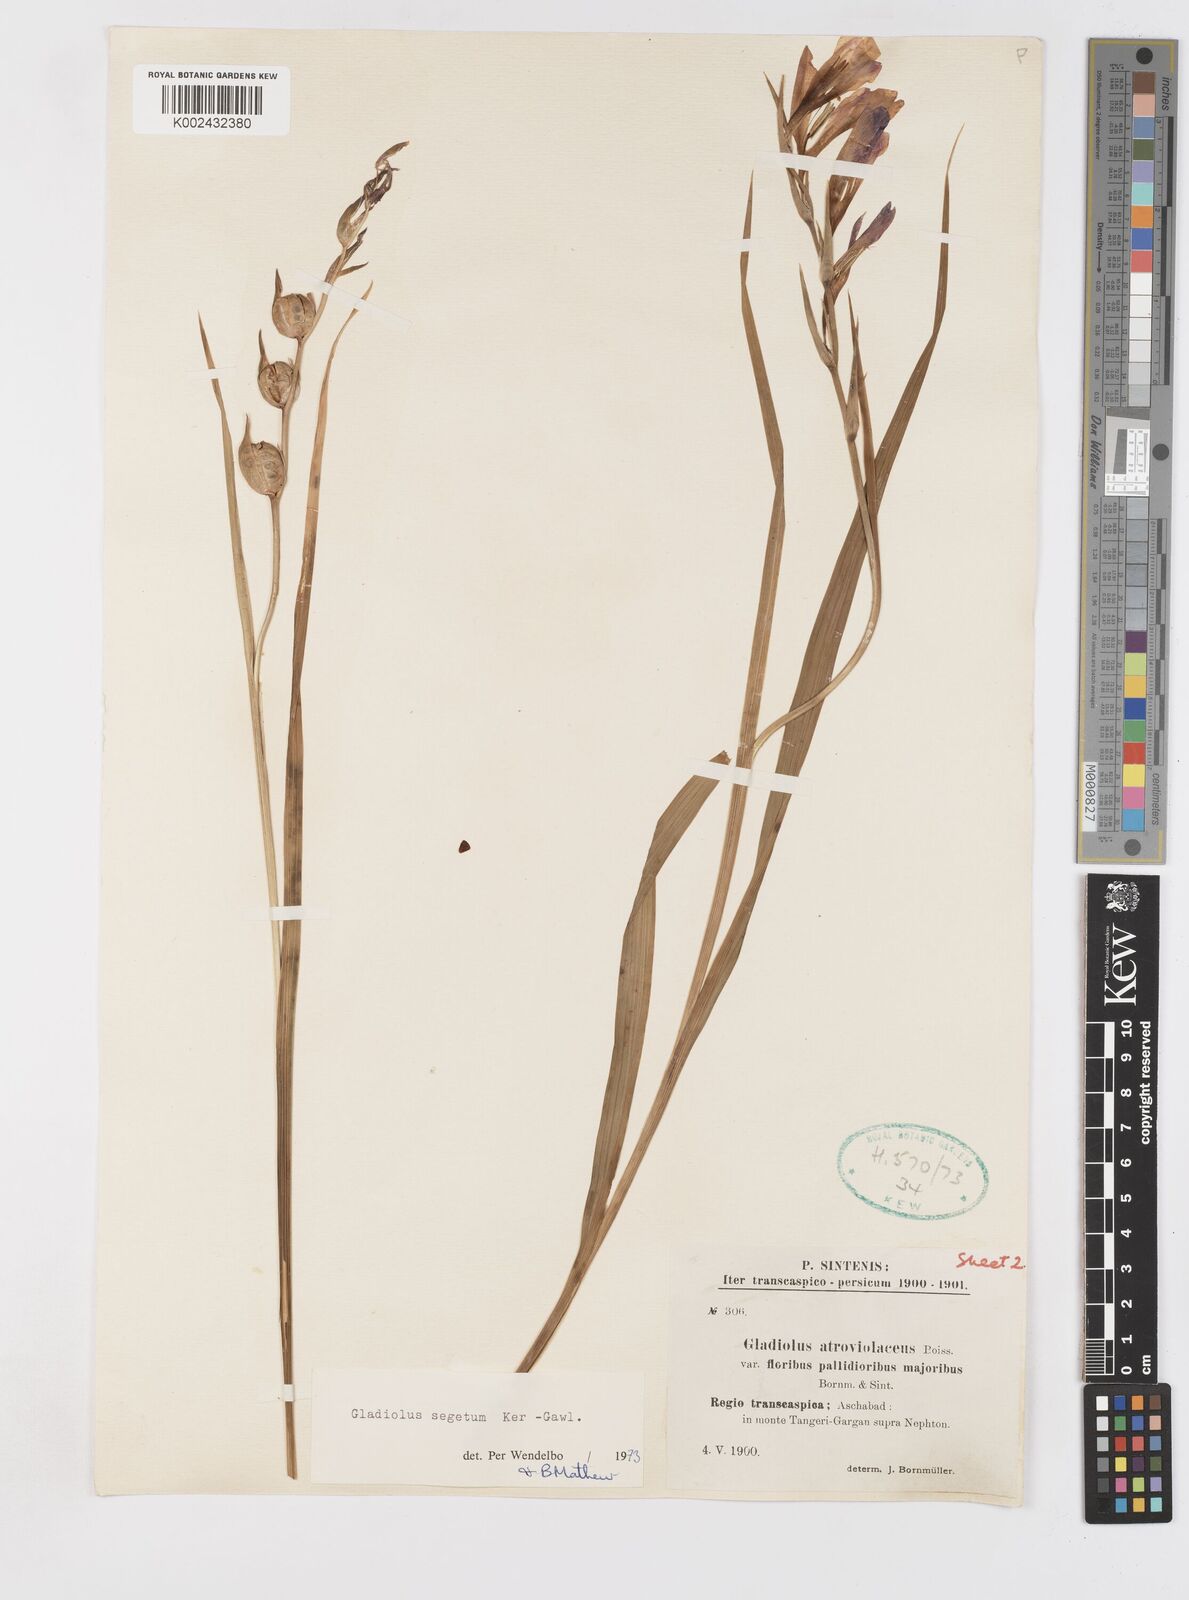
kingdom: Plantae
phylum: Tracheophyta
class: Liliopsida
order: Asparagales
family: Iridaceae
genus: Gladiolus
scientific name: Gladiolus italicus
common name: Field gladiolus
